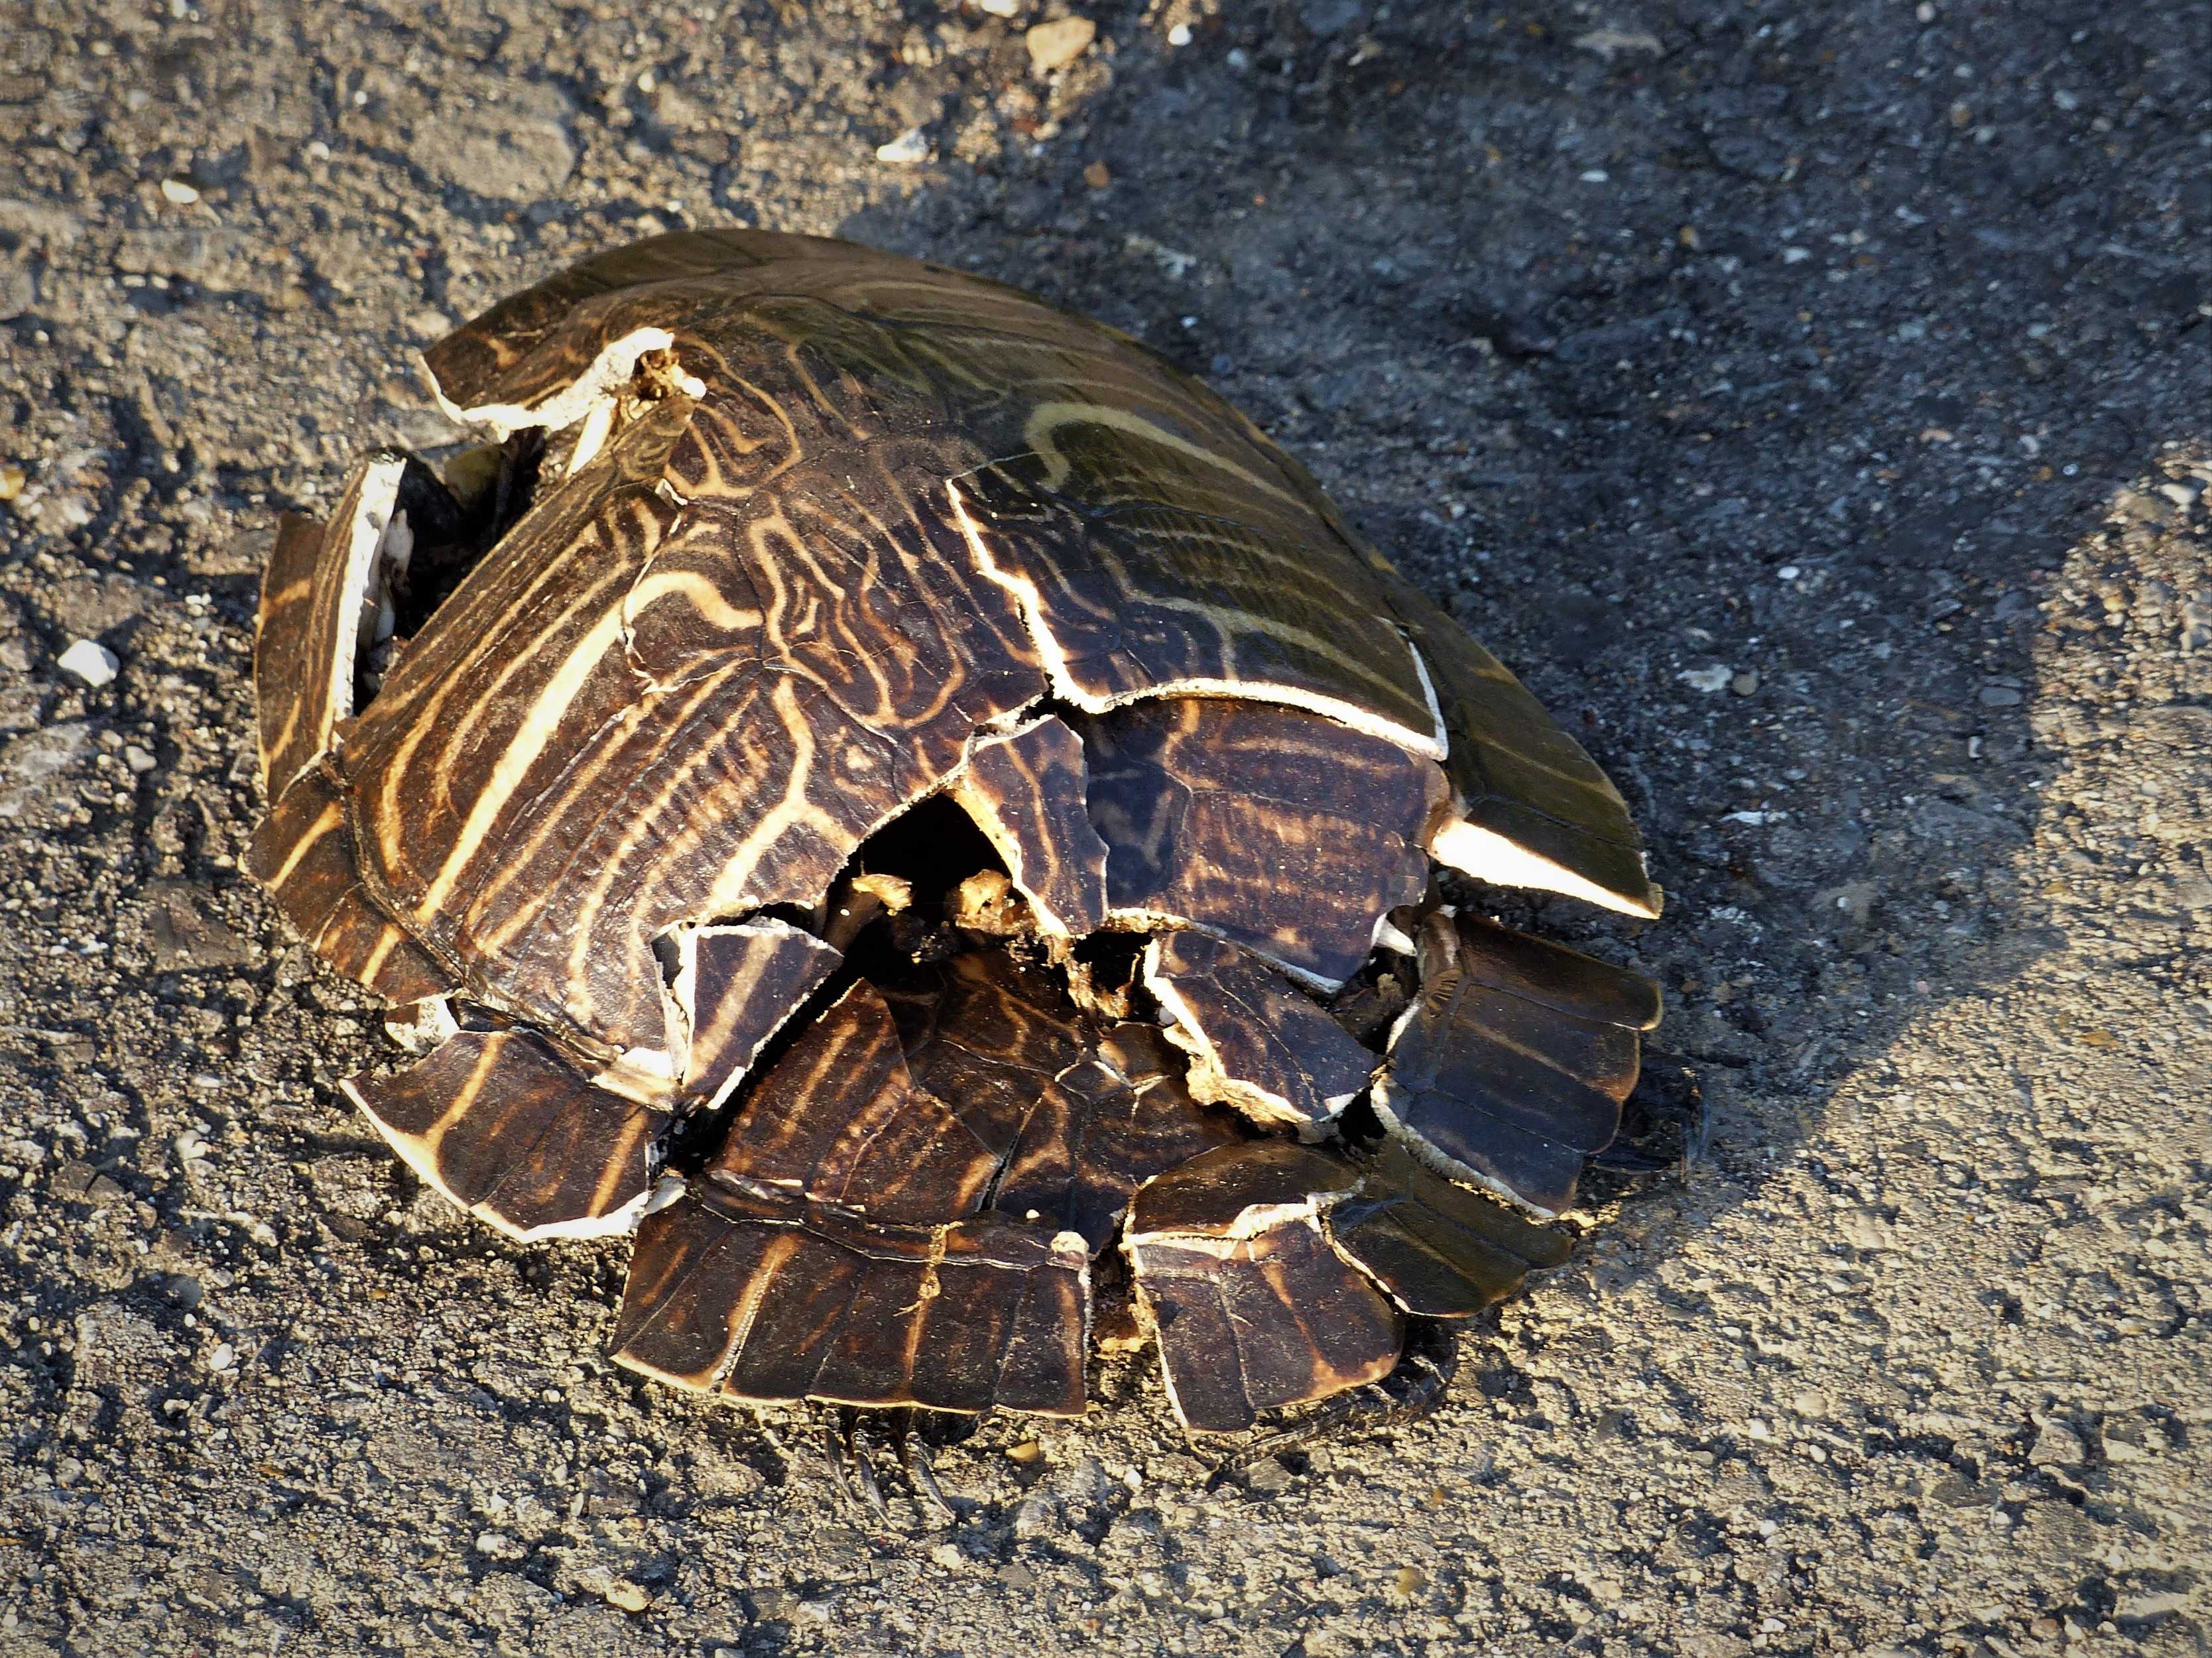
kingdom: Animalia
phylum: Chordata
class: Testudines
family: Emydidae
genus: Pseudemys
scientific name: Pseudemys concinna
